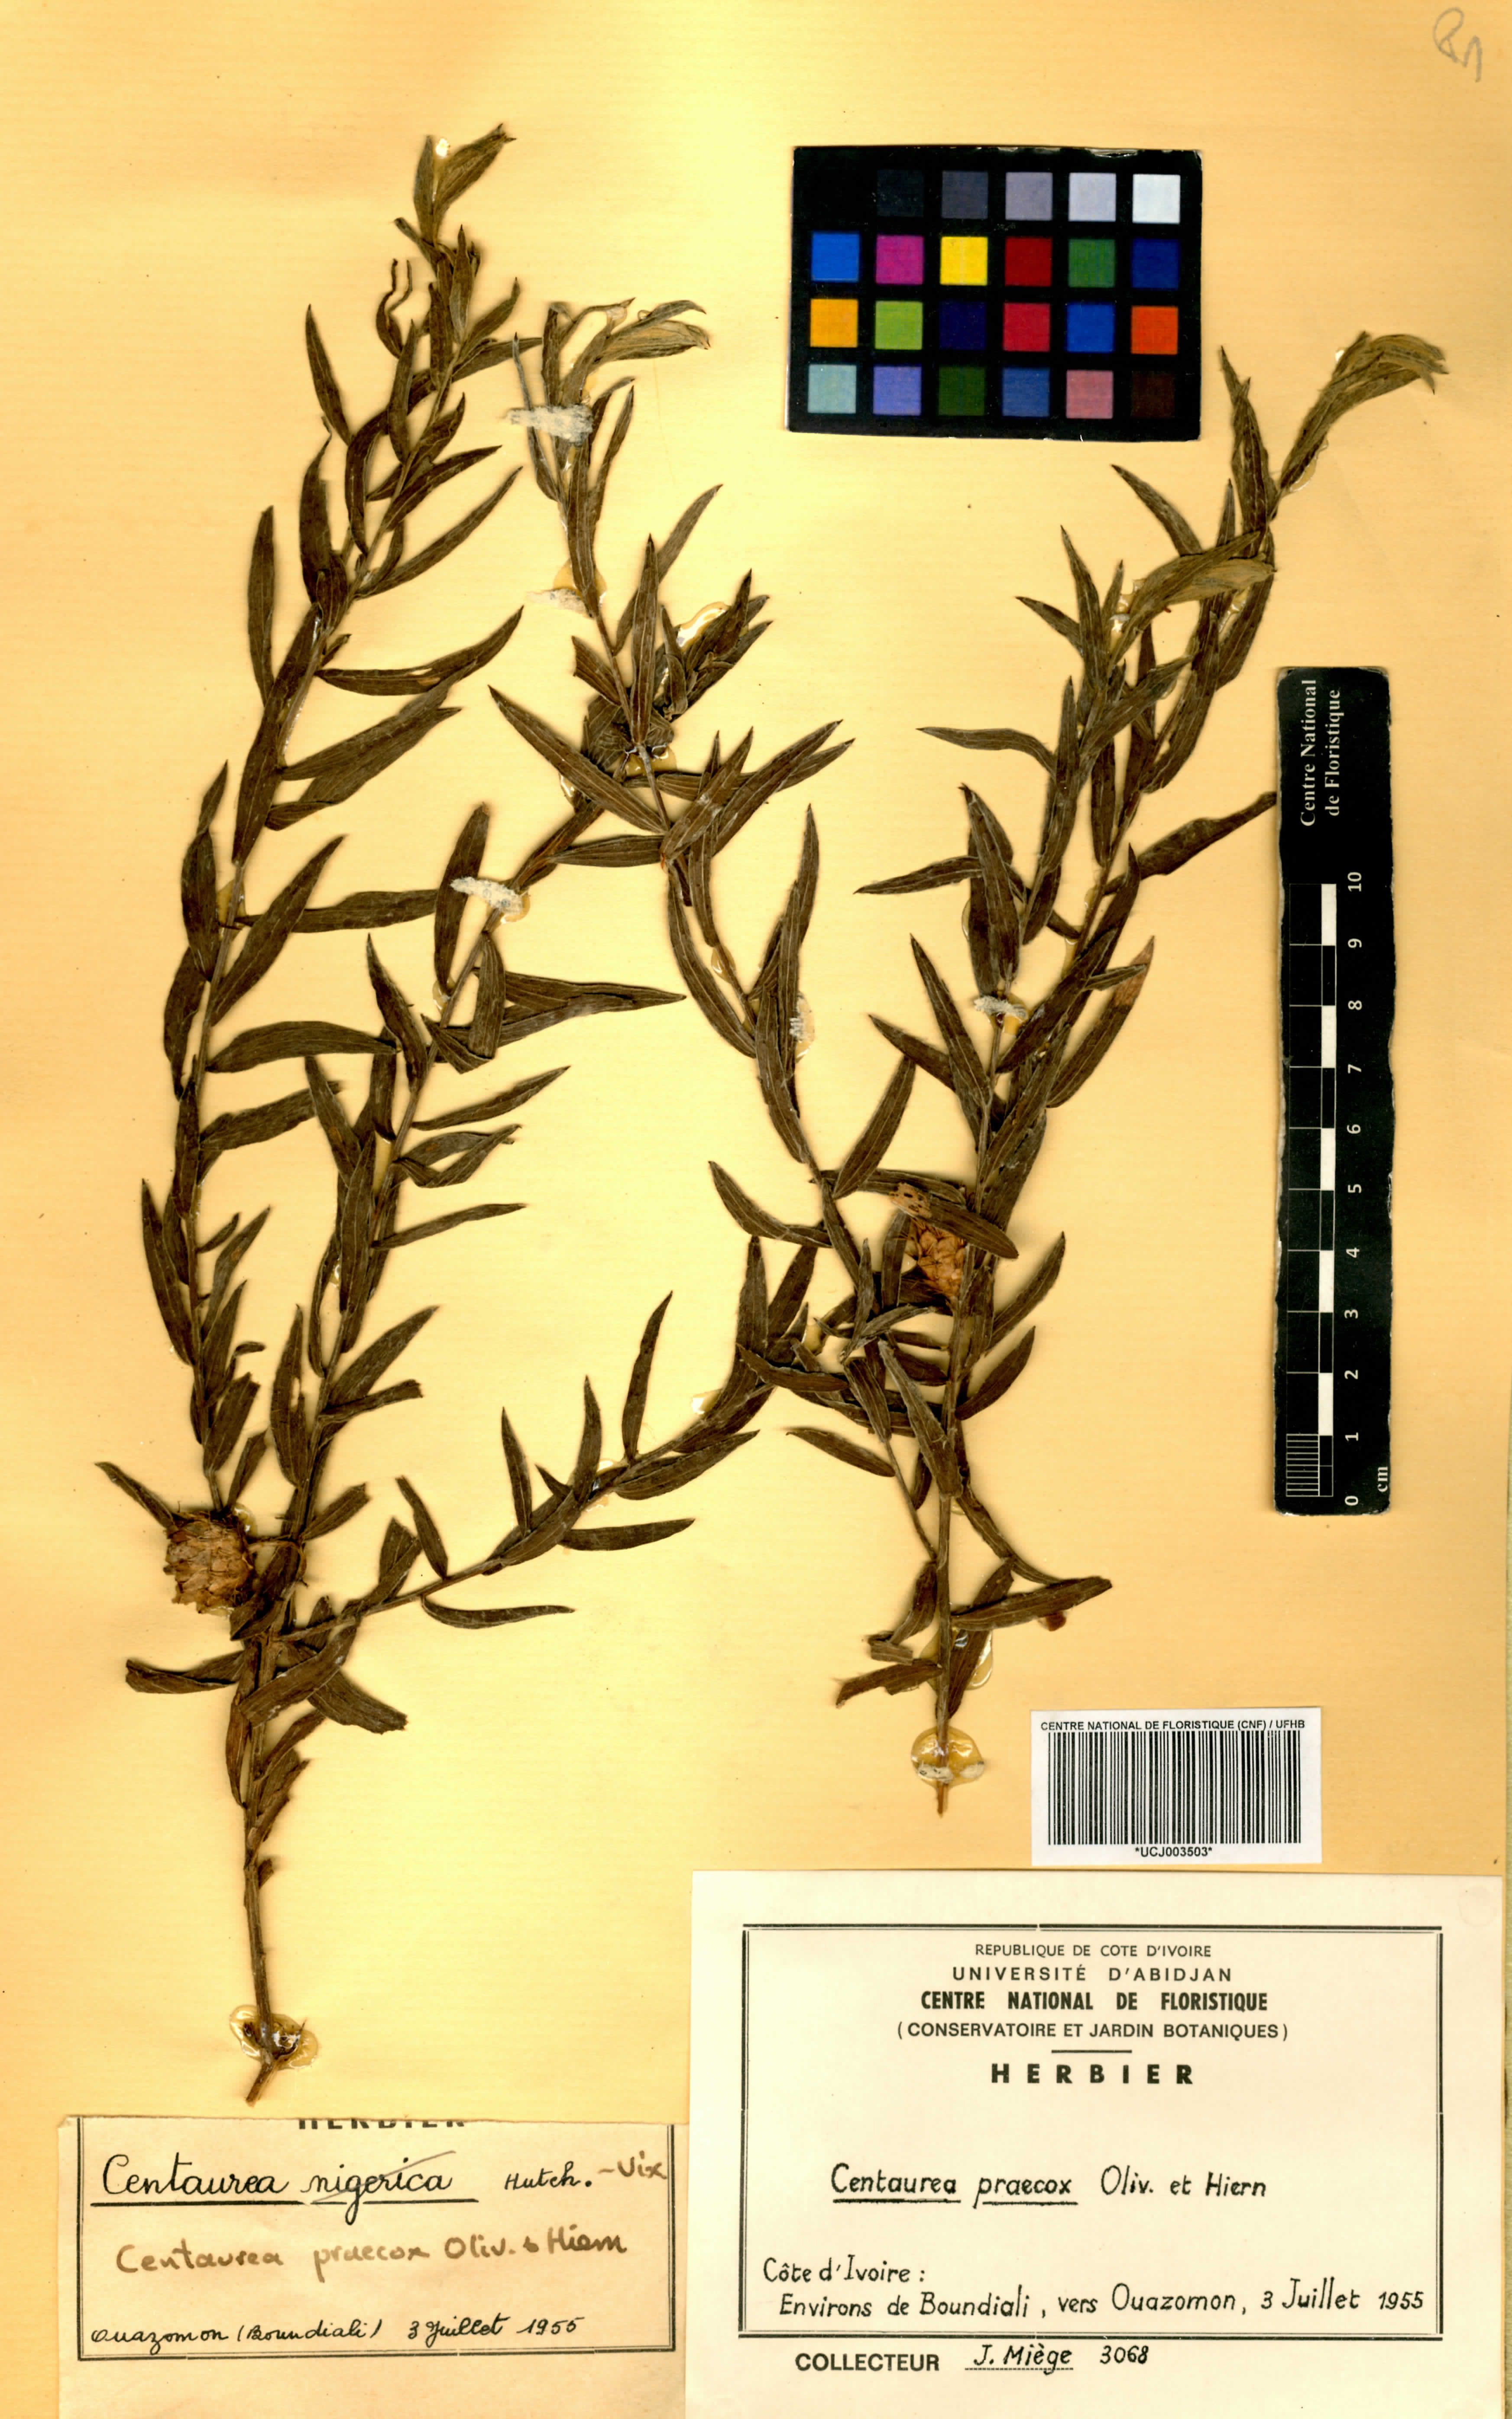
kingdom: Plantae
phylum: Tracheophyta
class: Magnoliopsida
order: Asterales
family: Asteraceae
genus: Centaurea
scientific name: Centaurea praecox
